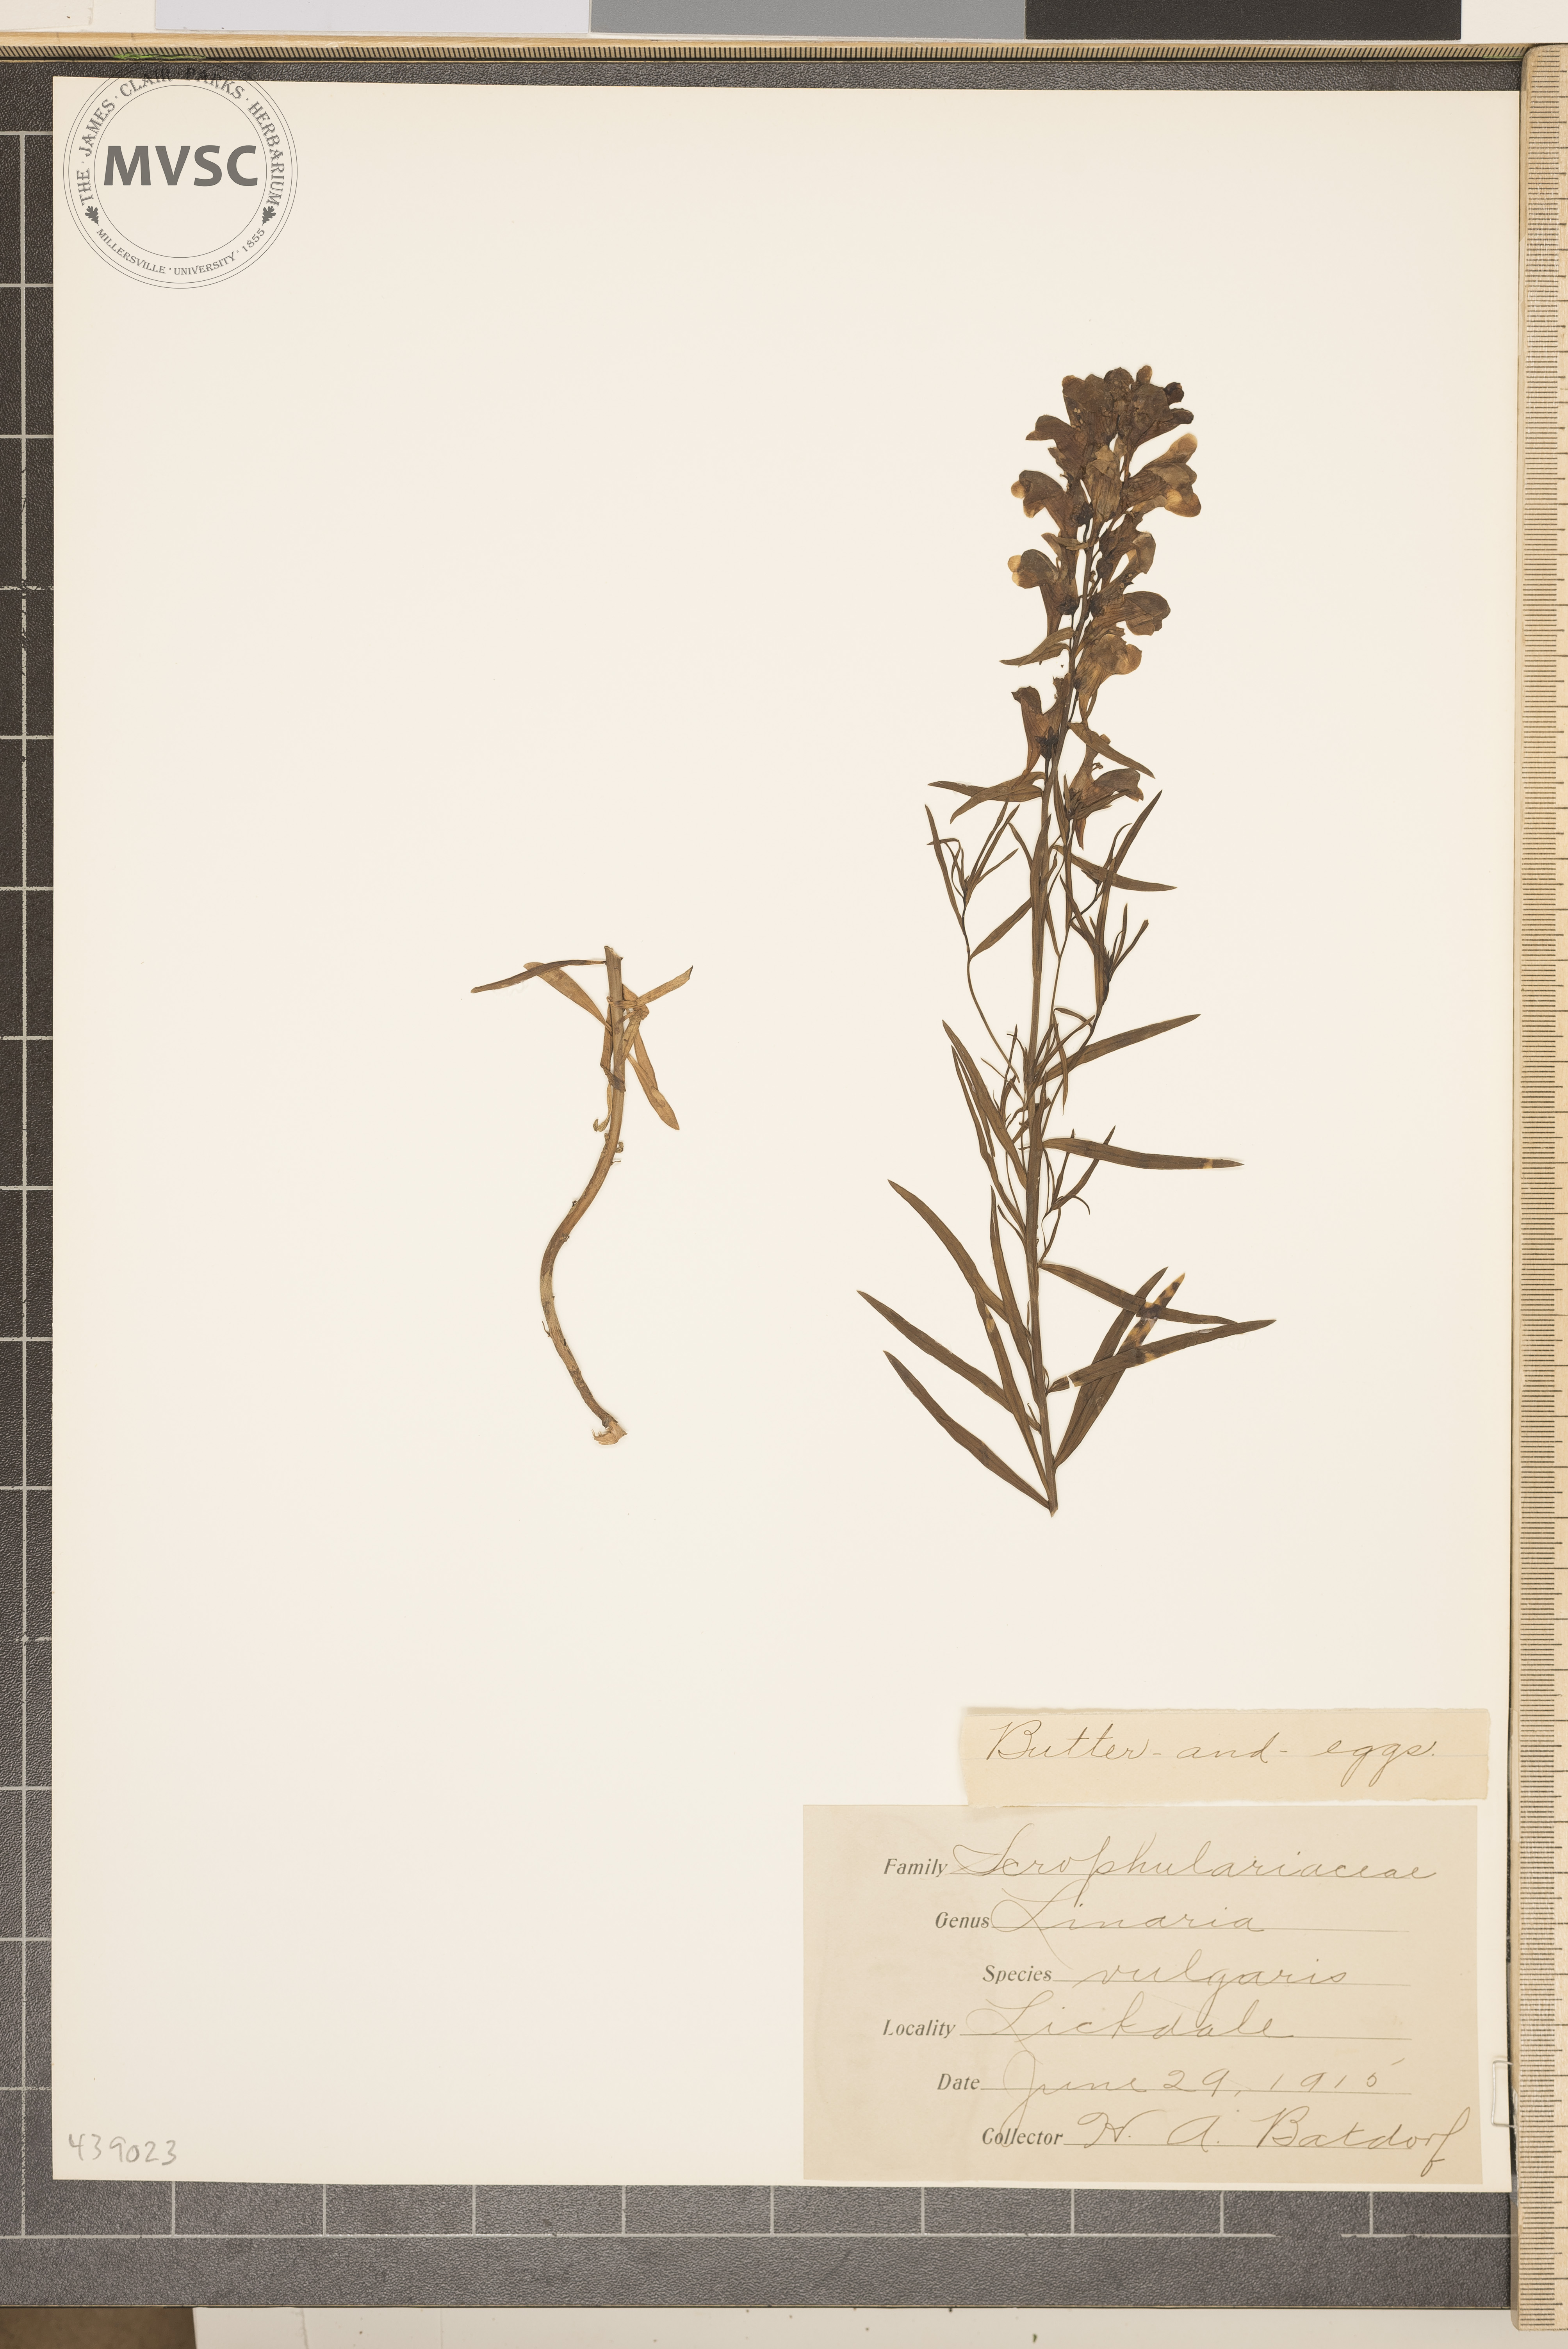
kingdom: Plantae
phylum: Tracheophyta
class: Magnoliopsida
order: Lamiales
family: Plantaginaceae
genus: Linaria
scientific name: Linaria vulgaris
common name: Butter and eggs
